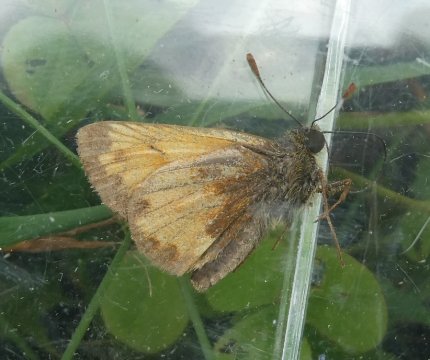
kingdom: Animalia
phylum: Arthropoda
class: Insecta
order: Lepidoptera
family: Hesperiidae
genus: Lon
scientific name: Lon hobomok
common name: Hobomok Skipper
